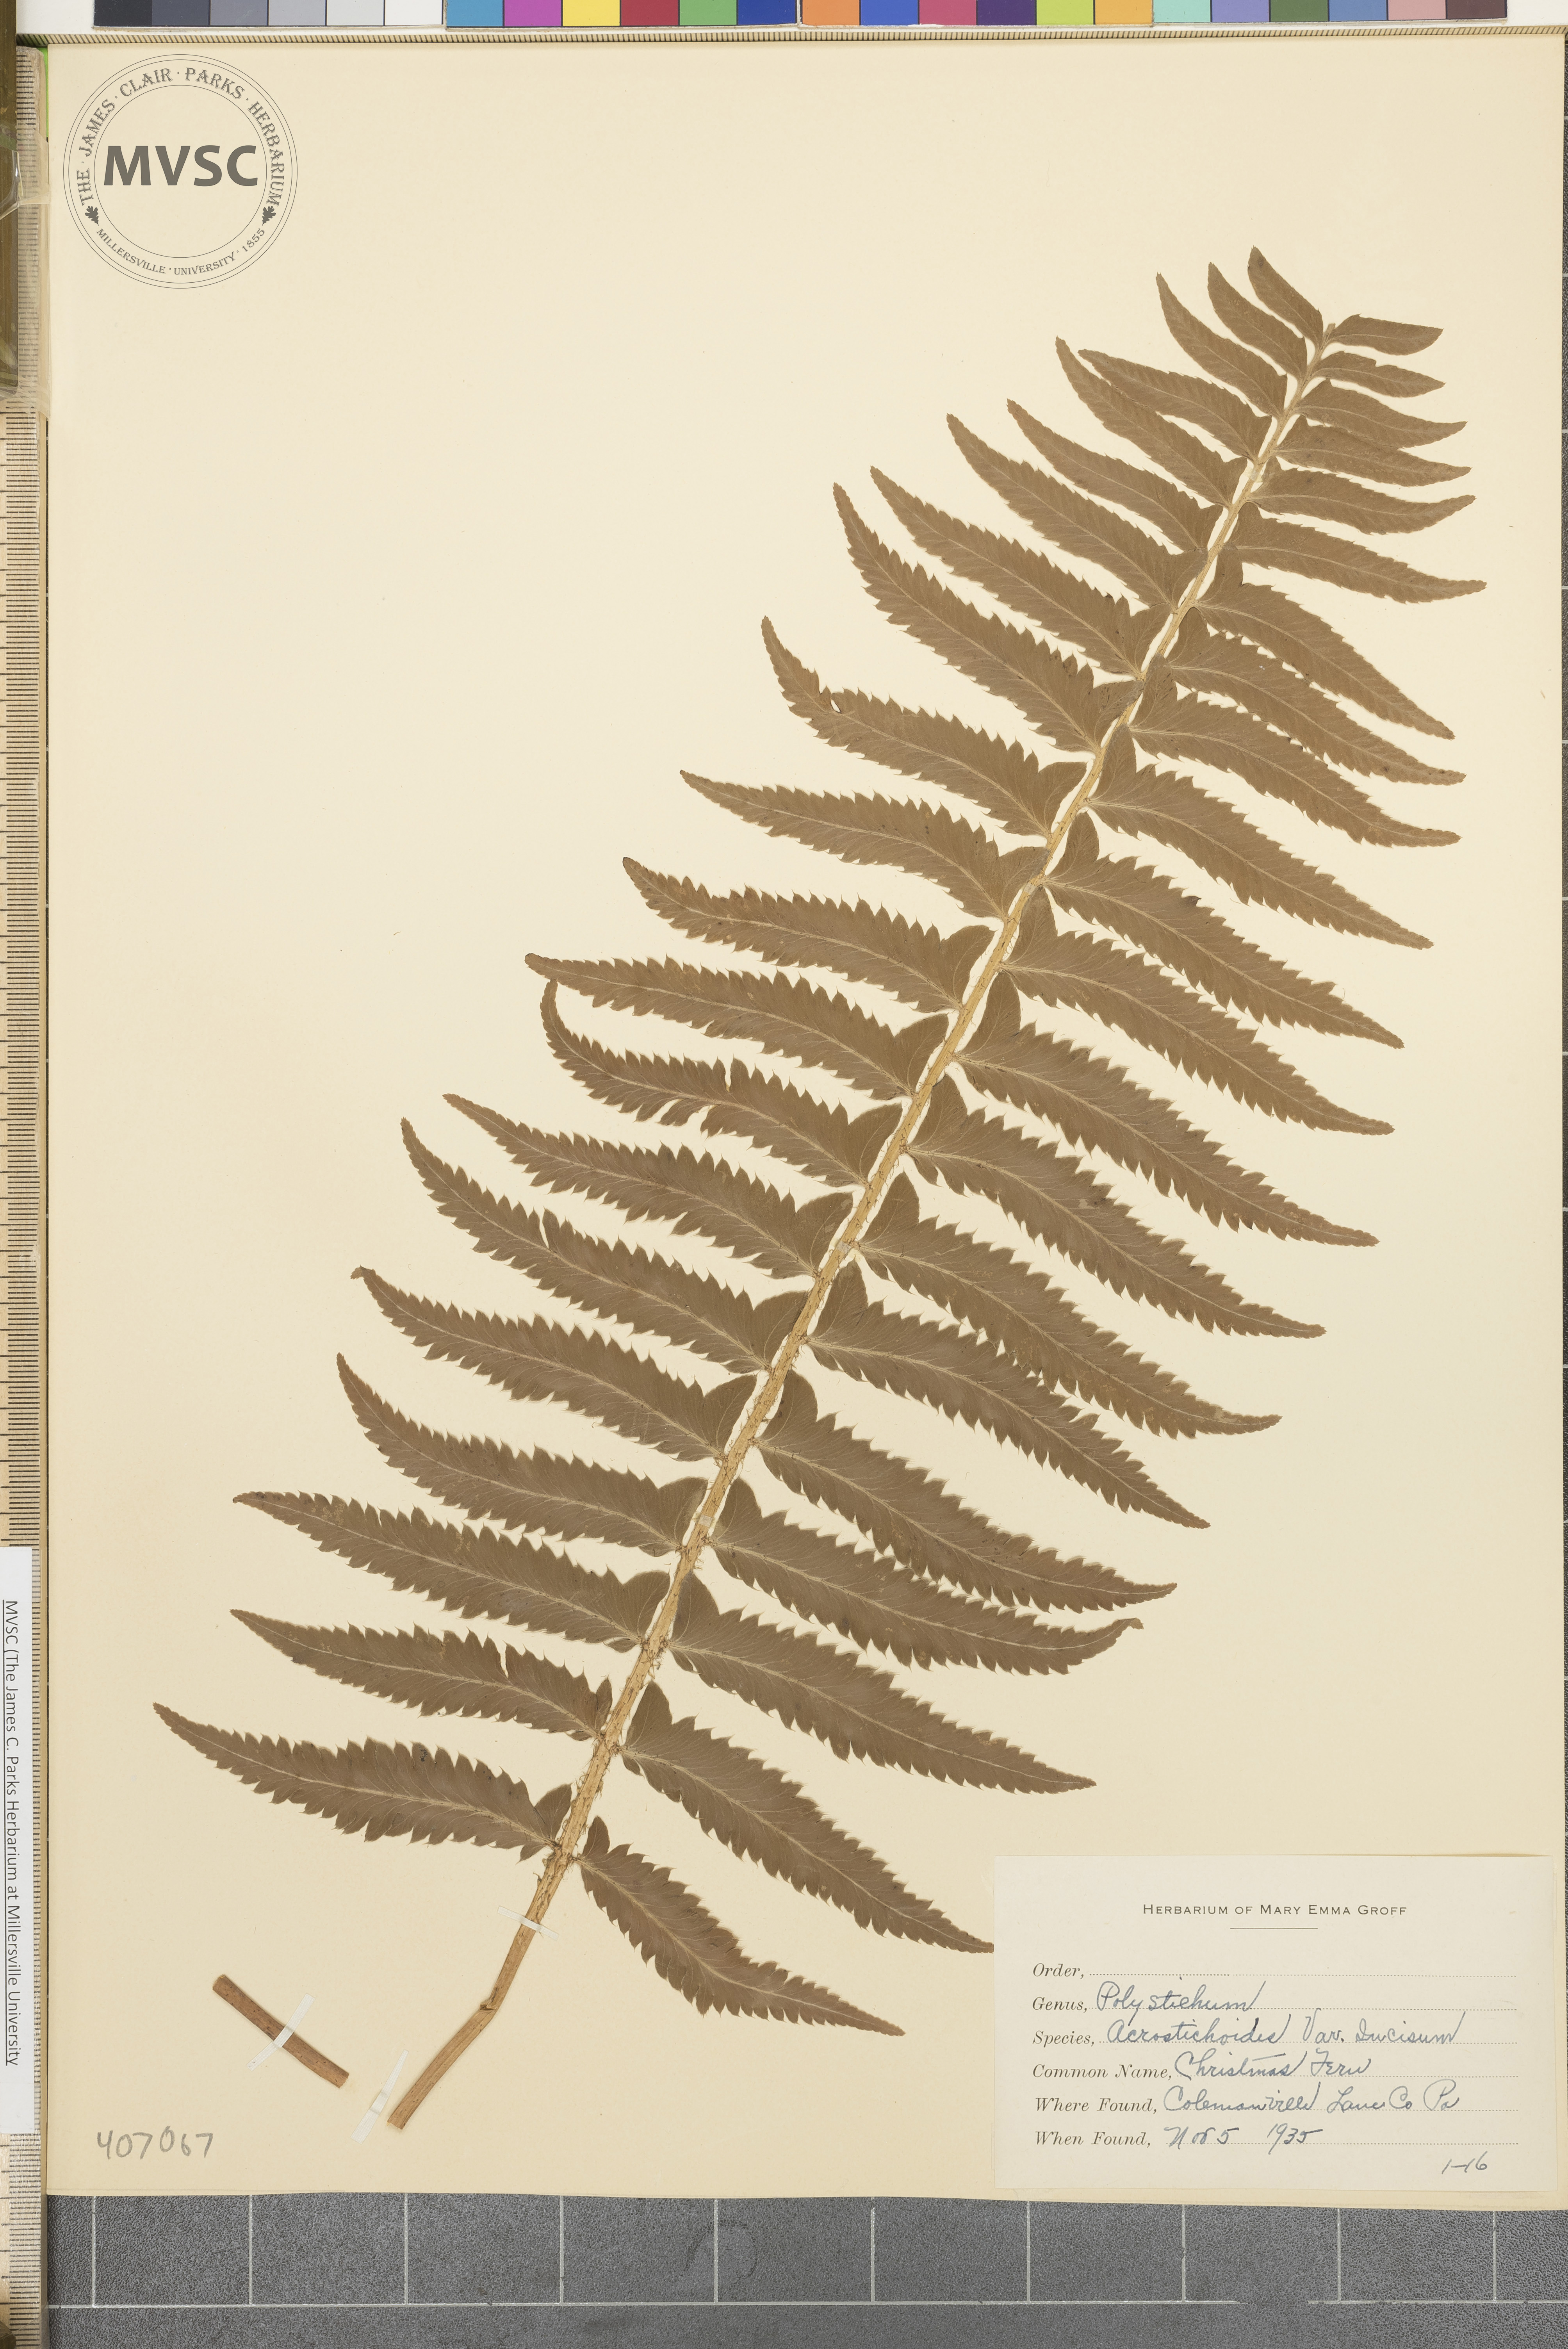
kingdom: Plantae
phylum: Tracheophyta
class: Polypodiopsida
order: Polypodiales
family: Dryopteridaceae
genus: Polystichum
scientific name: Polystichum acrostichoides
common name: Christmas fern
